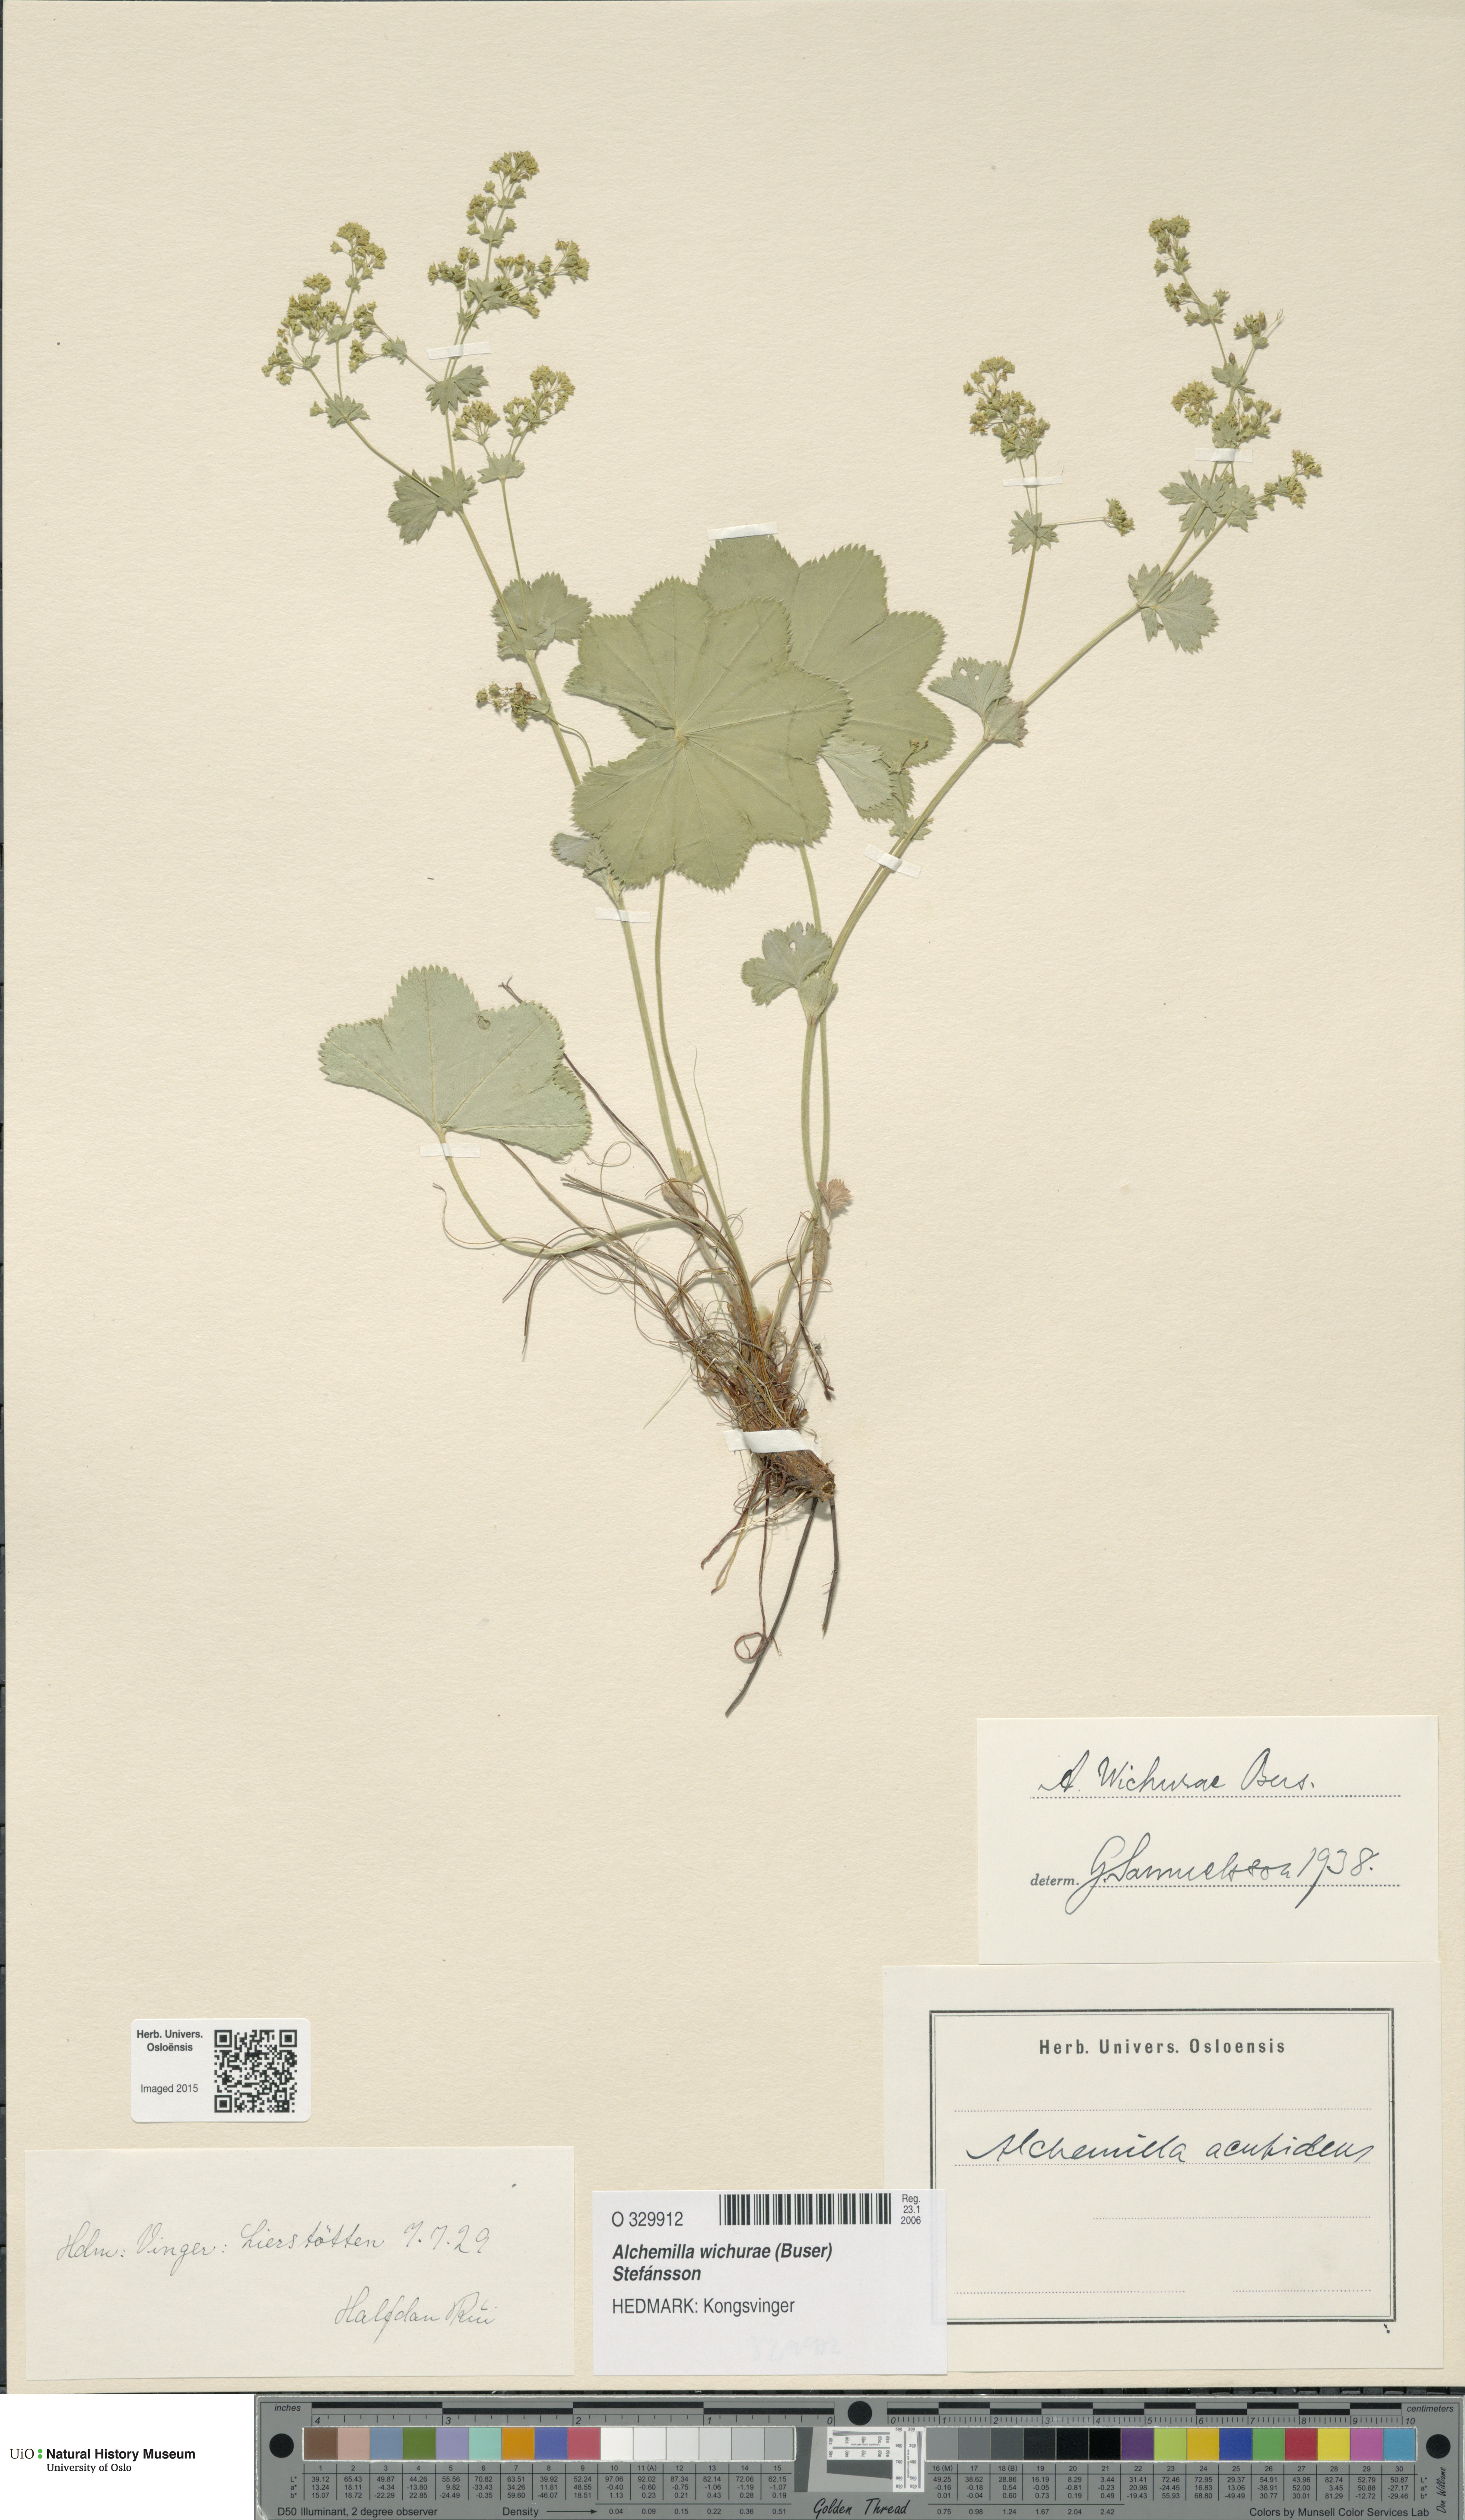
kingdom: Plantae
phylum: Tracheophyta
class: Magnoliopsida
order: Rosales
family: Rosaceae
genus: Alchemilla
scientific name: Alchemilla wichurae
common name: Rock lady's mantle
